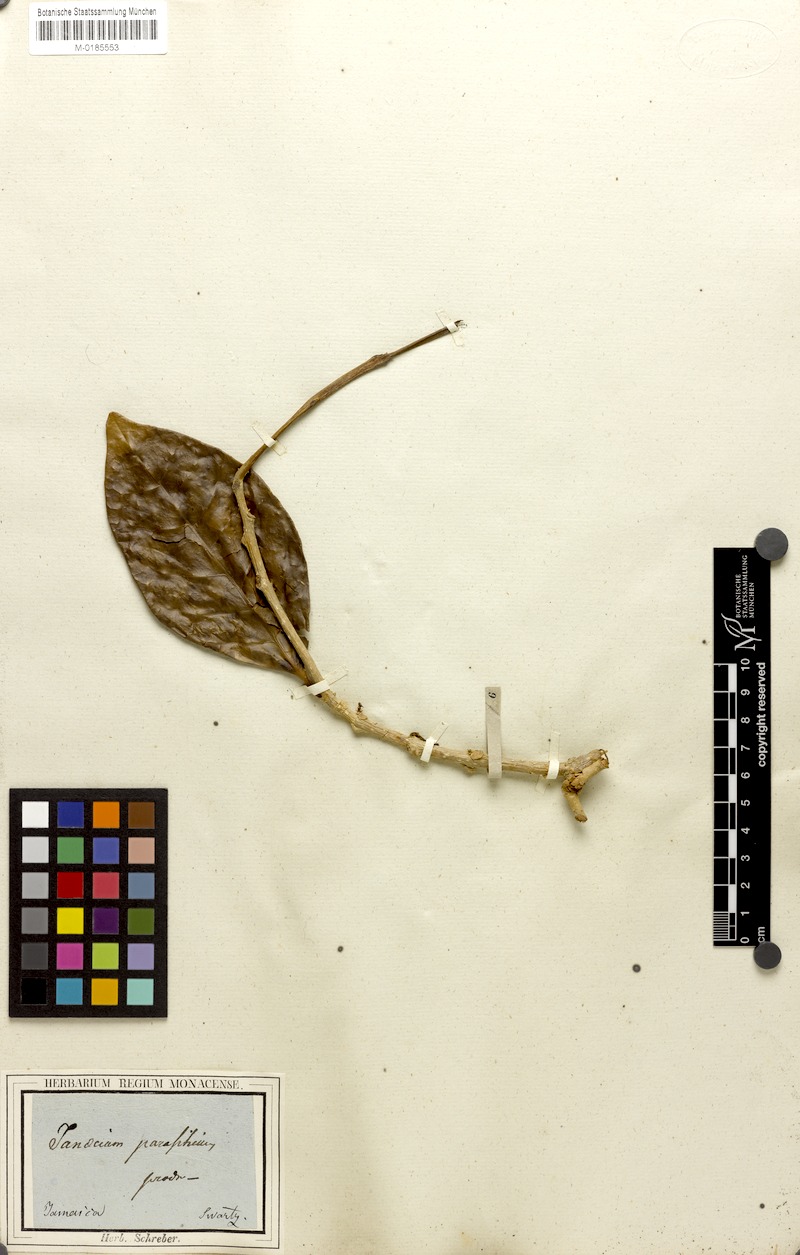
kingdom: Plantae
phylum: Tracheophyta
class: Magnoliopsida
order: Lamiales
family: Schlegeliaceae
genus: Schlegelia
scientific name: Schlegelia parasitica
